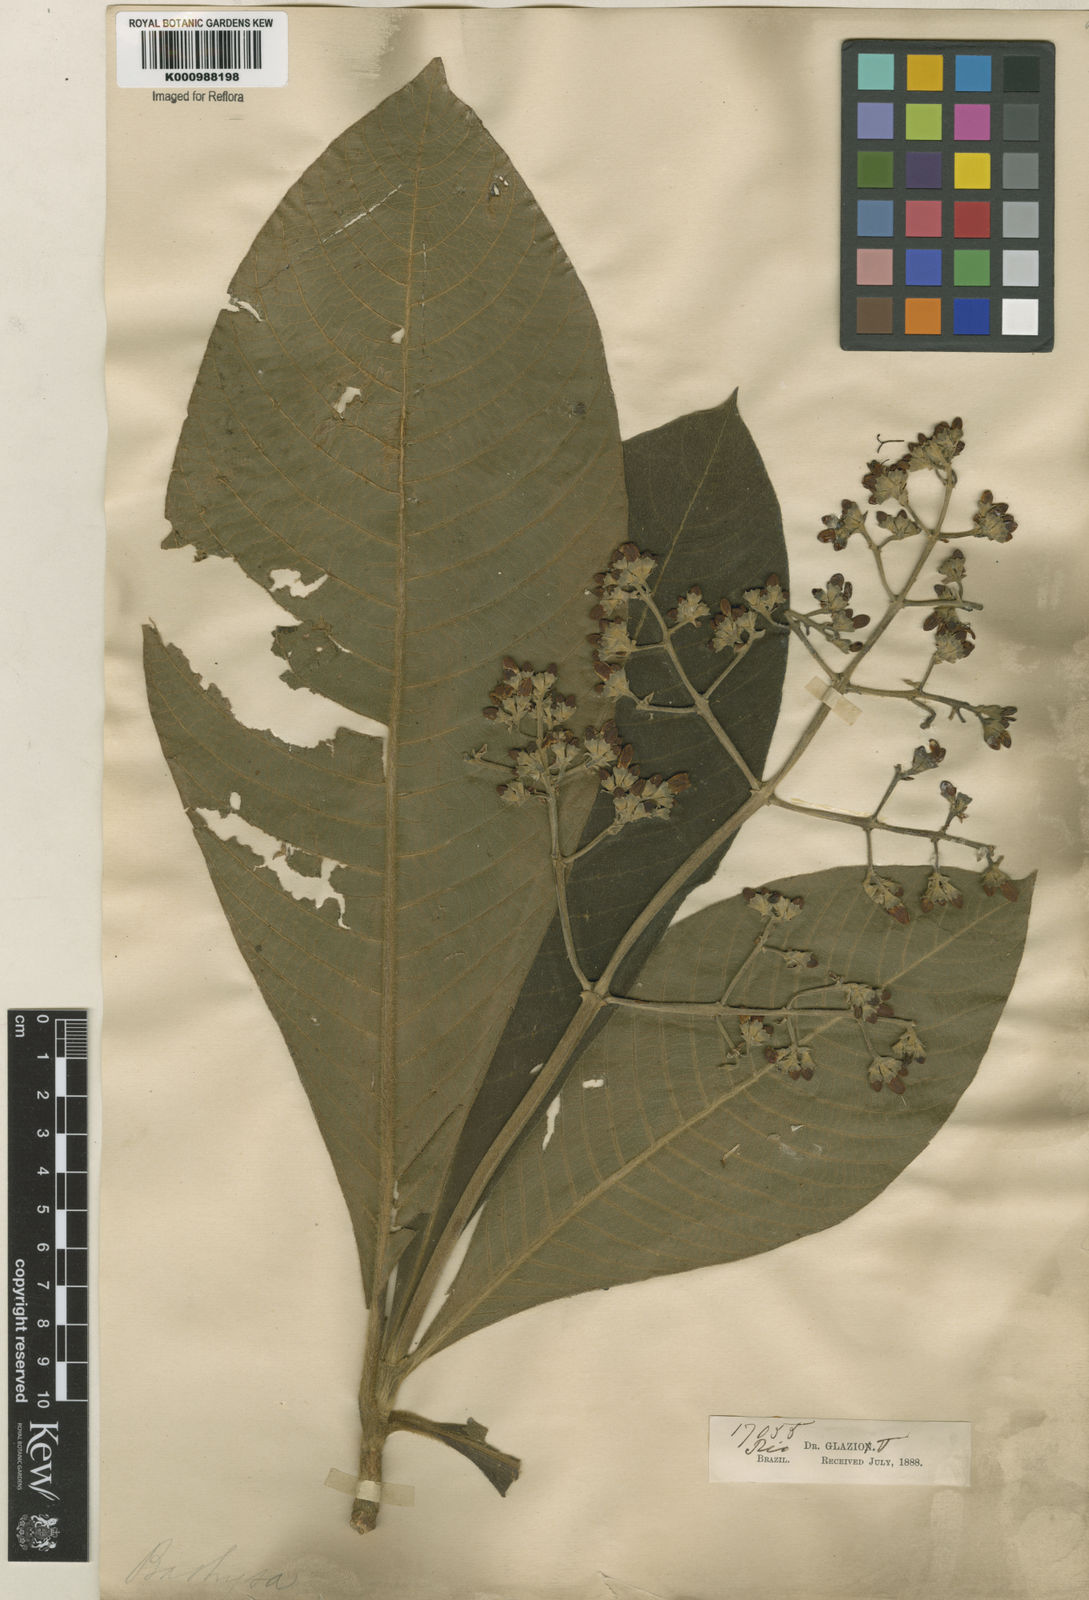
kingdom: Plantae
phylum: Tracheophyta
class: Magnoliopsida
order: Gentianales
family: Rubiaceae
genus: Schizocalyx
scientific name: Schizocalyx cuspidatus
